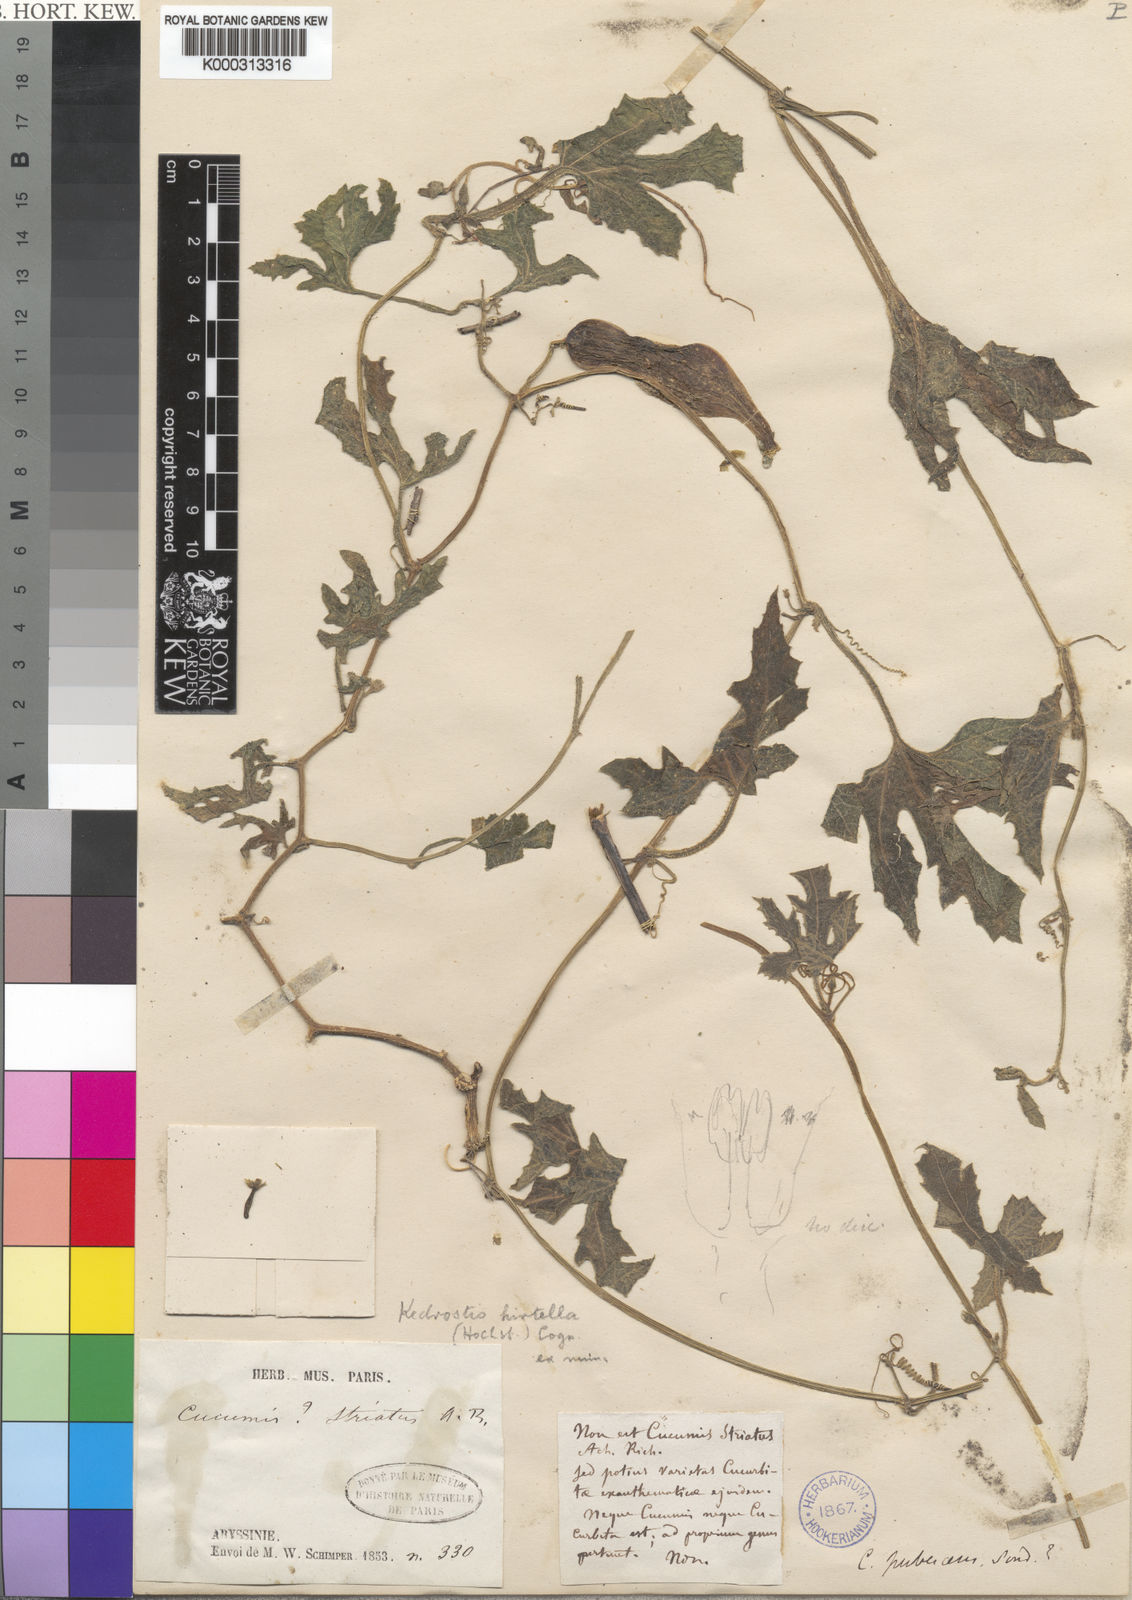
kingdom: Plantae
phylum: Tracheophyta
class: Magnoliopsida
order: Cucurbitales
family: Cucurbitaceae
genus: Kedrostis
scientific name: Kedrostis leloja
